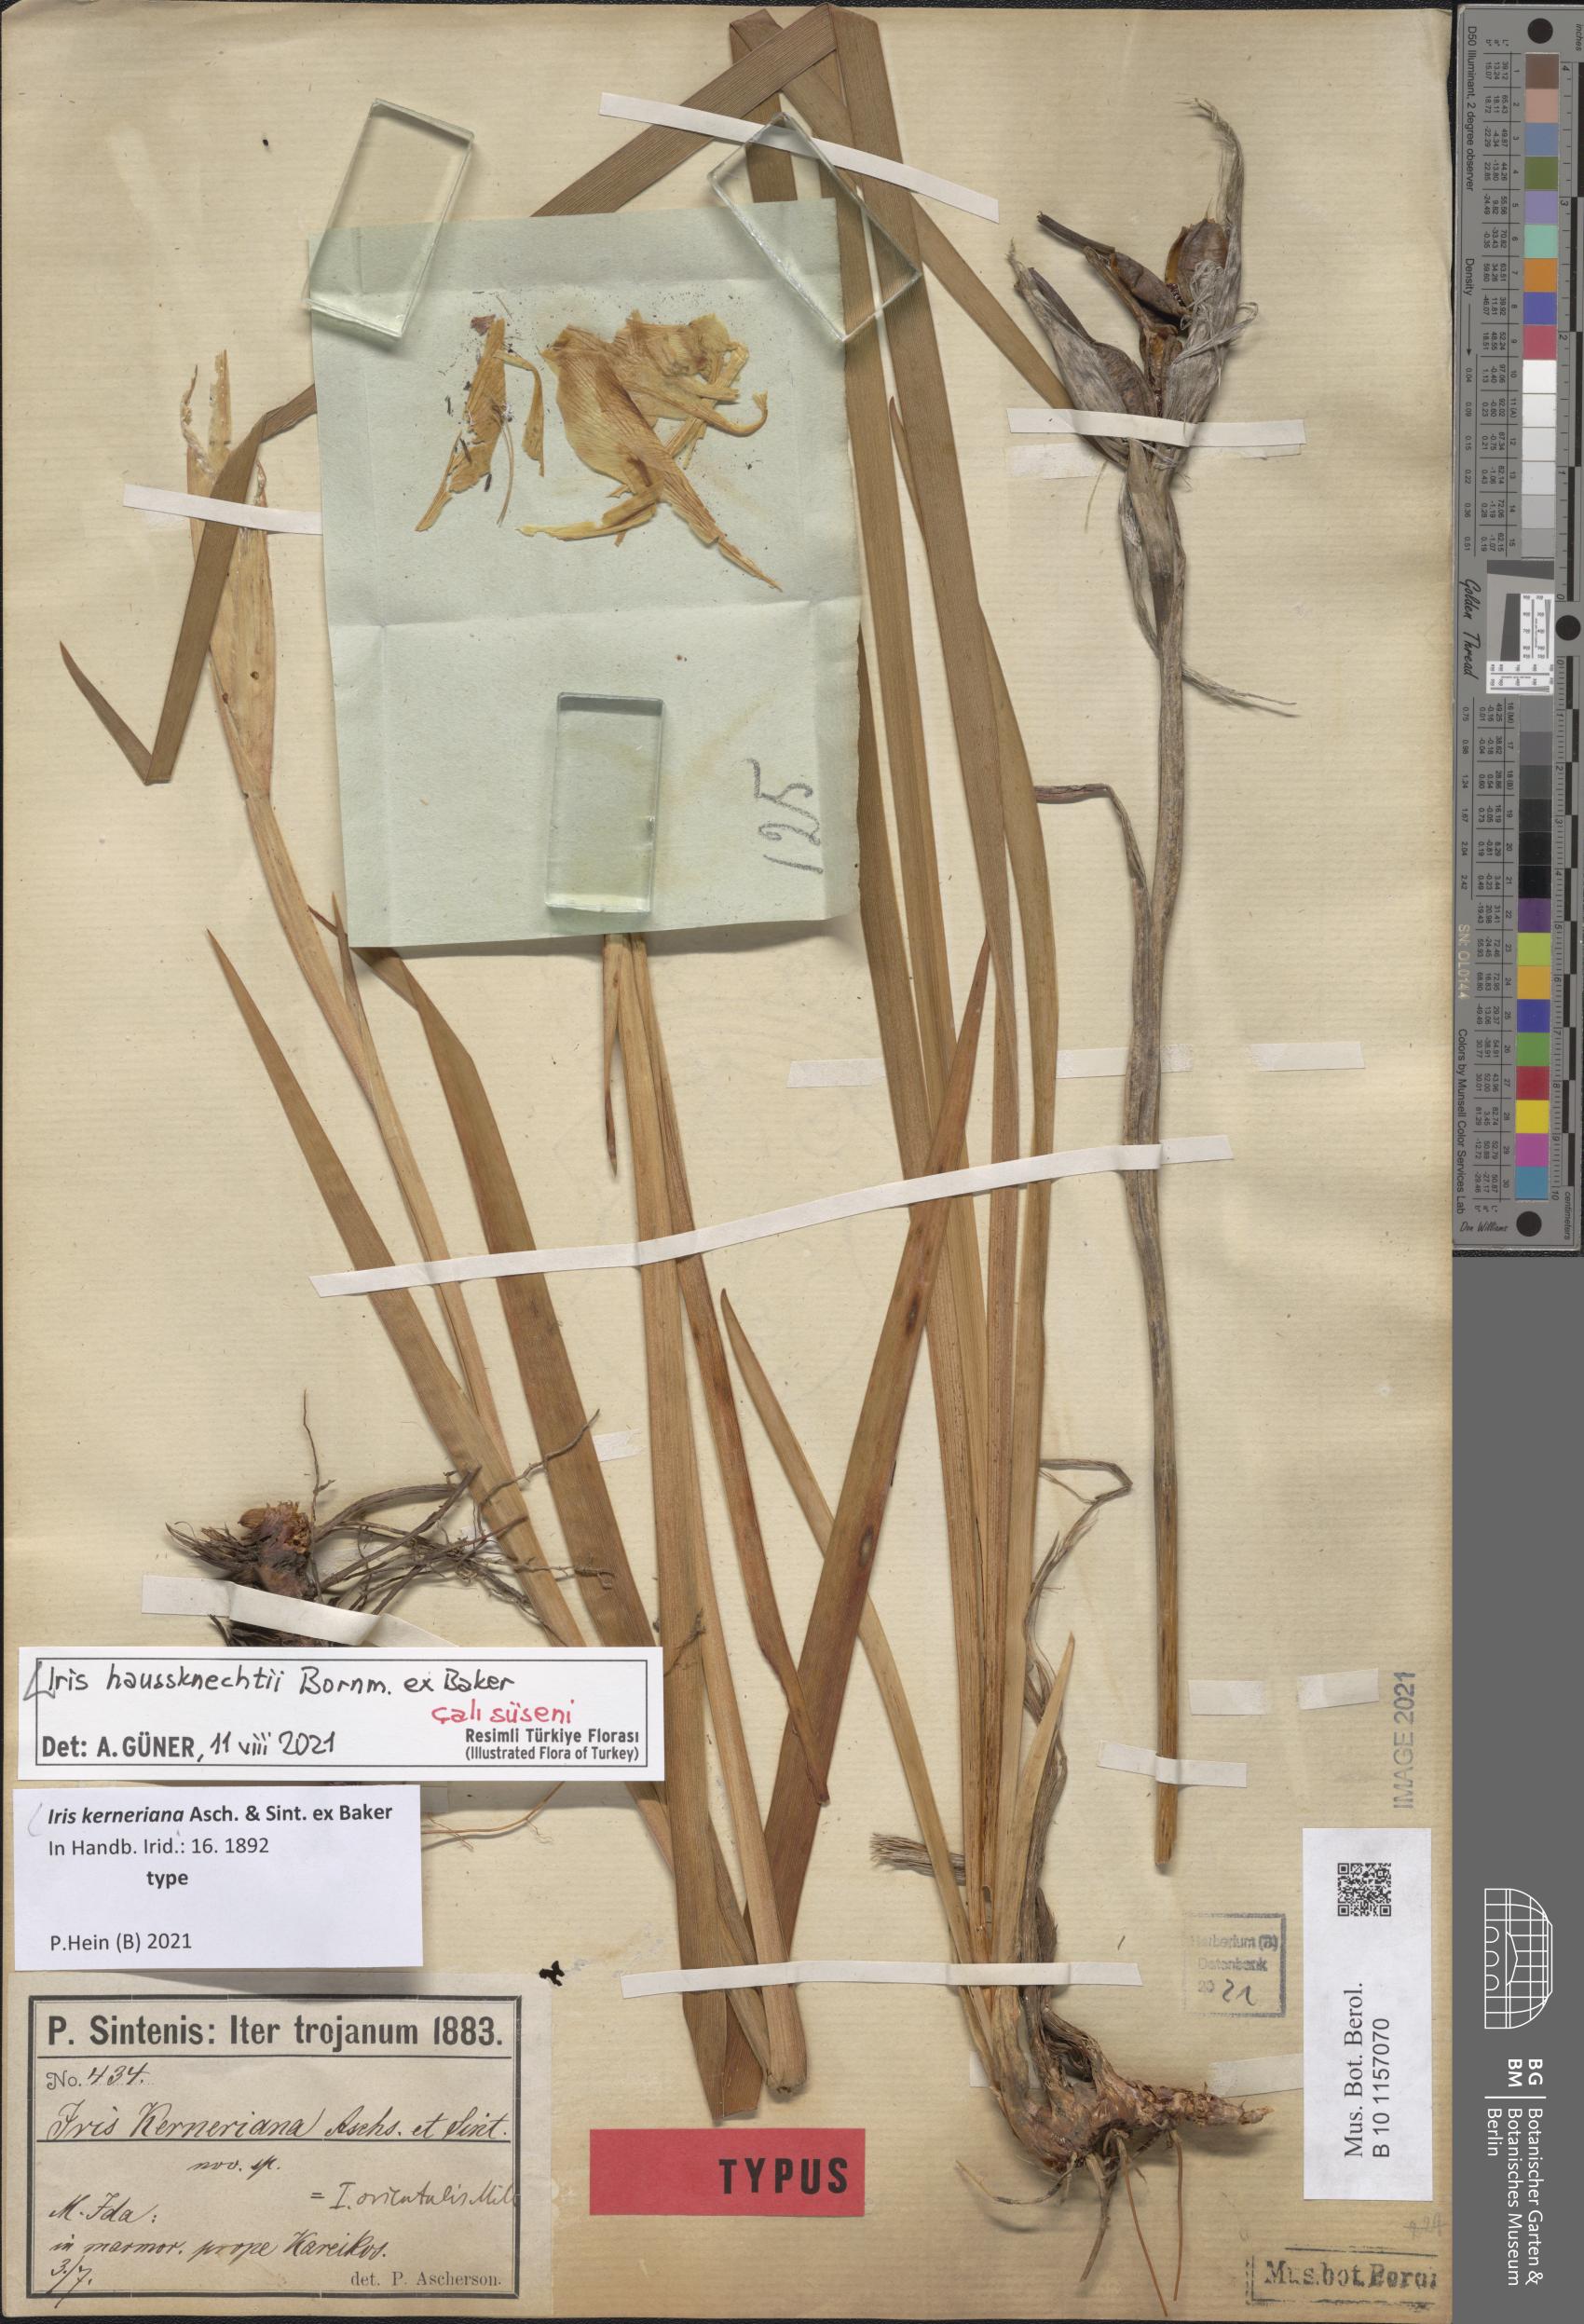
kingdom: Plantae
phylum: Tracheophyta
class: Liliopsida
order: Asparagales
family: Iridaceae
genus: Iris
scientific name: Iris haussknechtii
